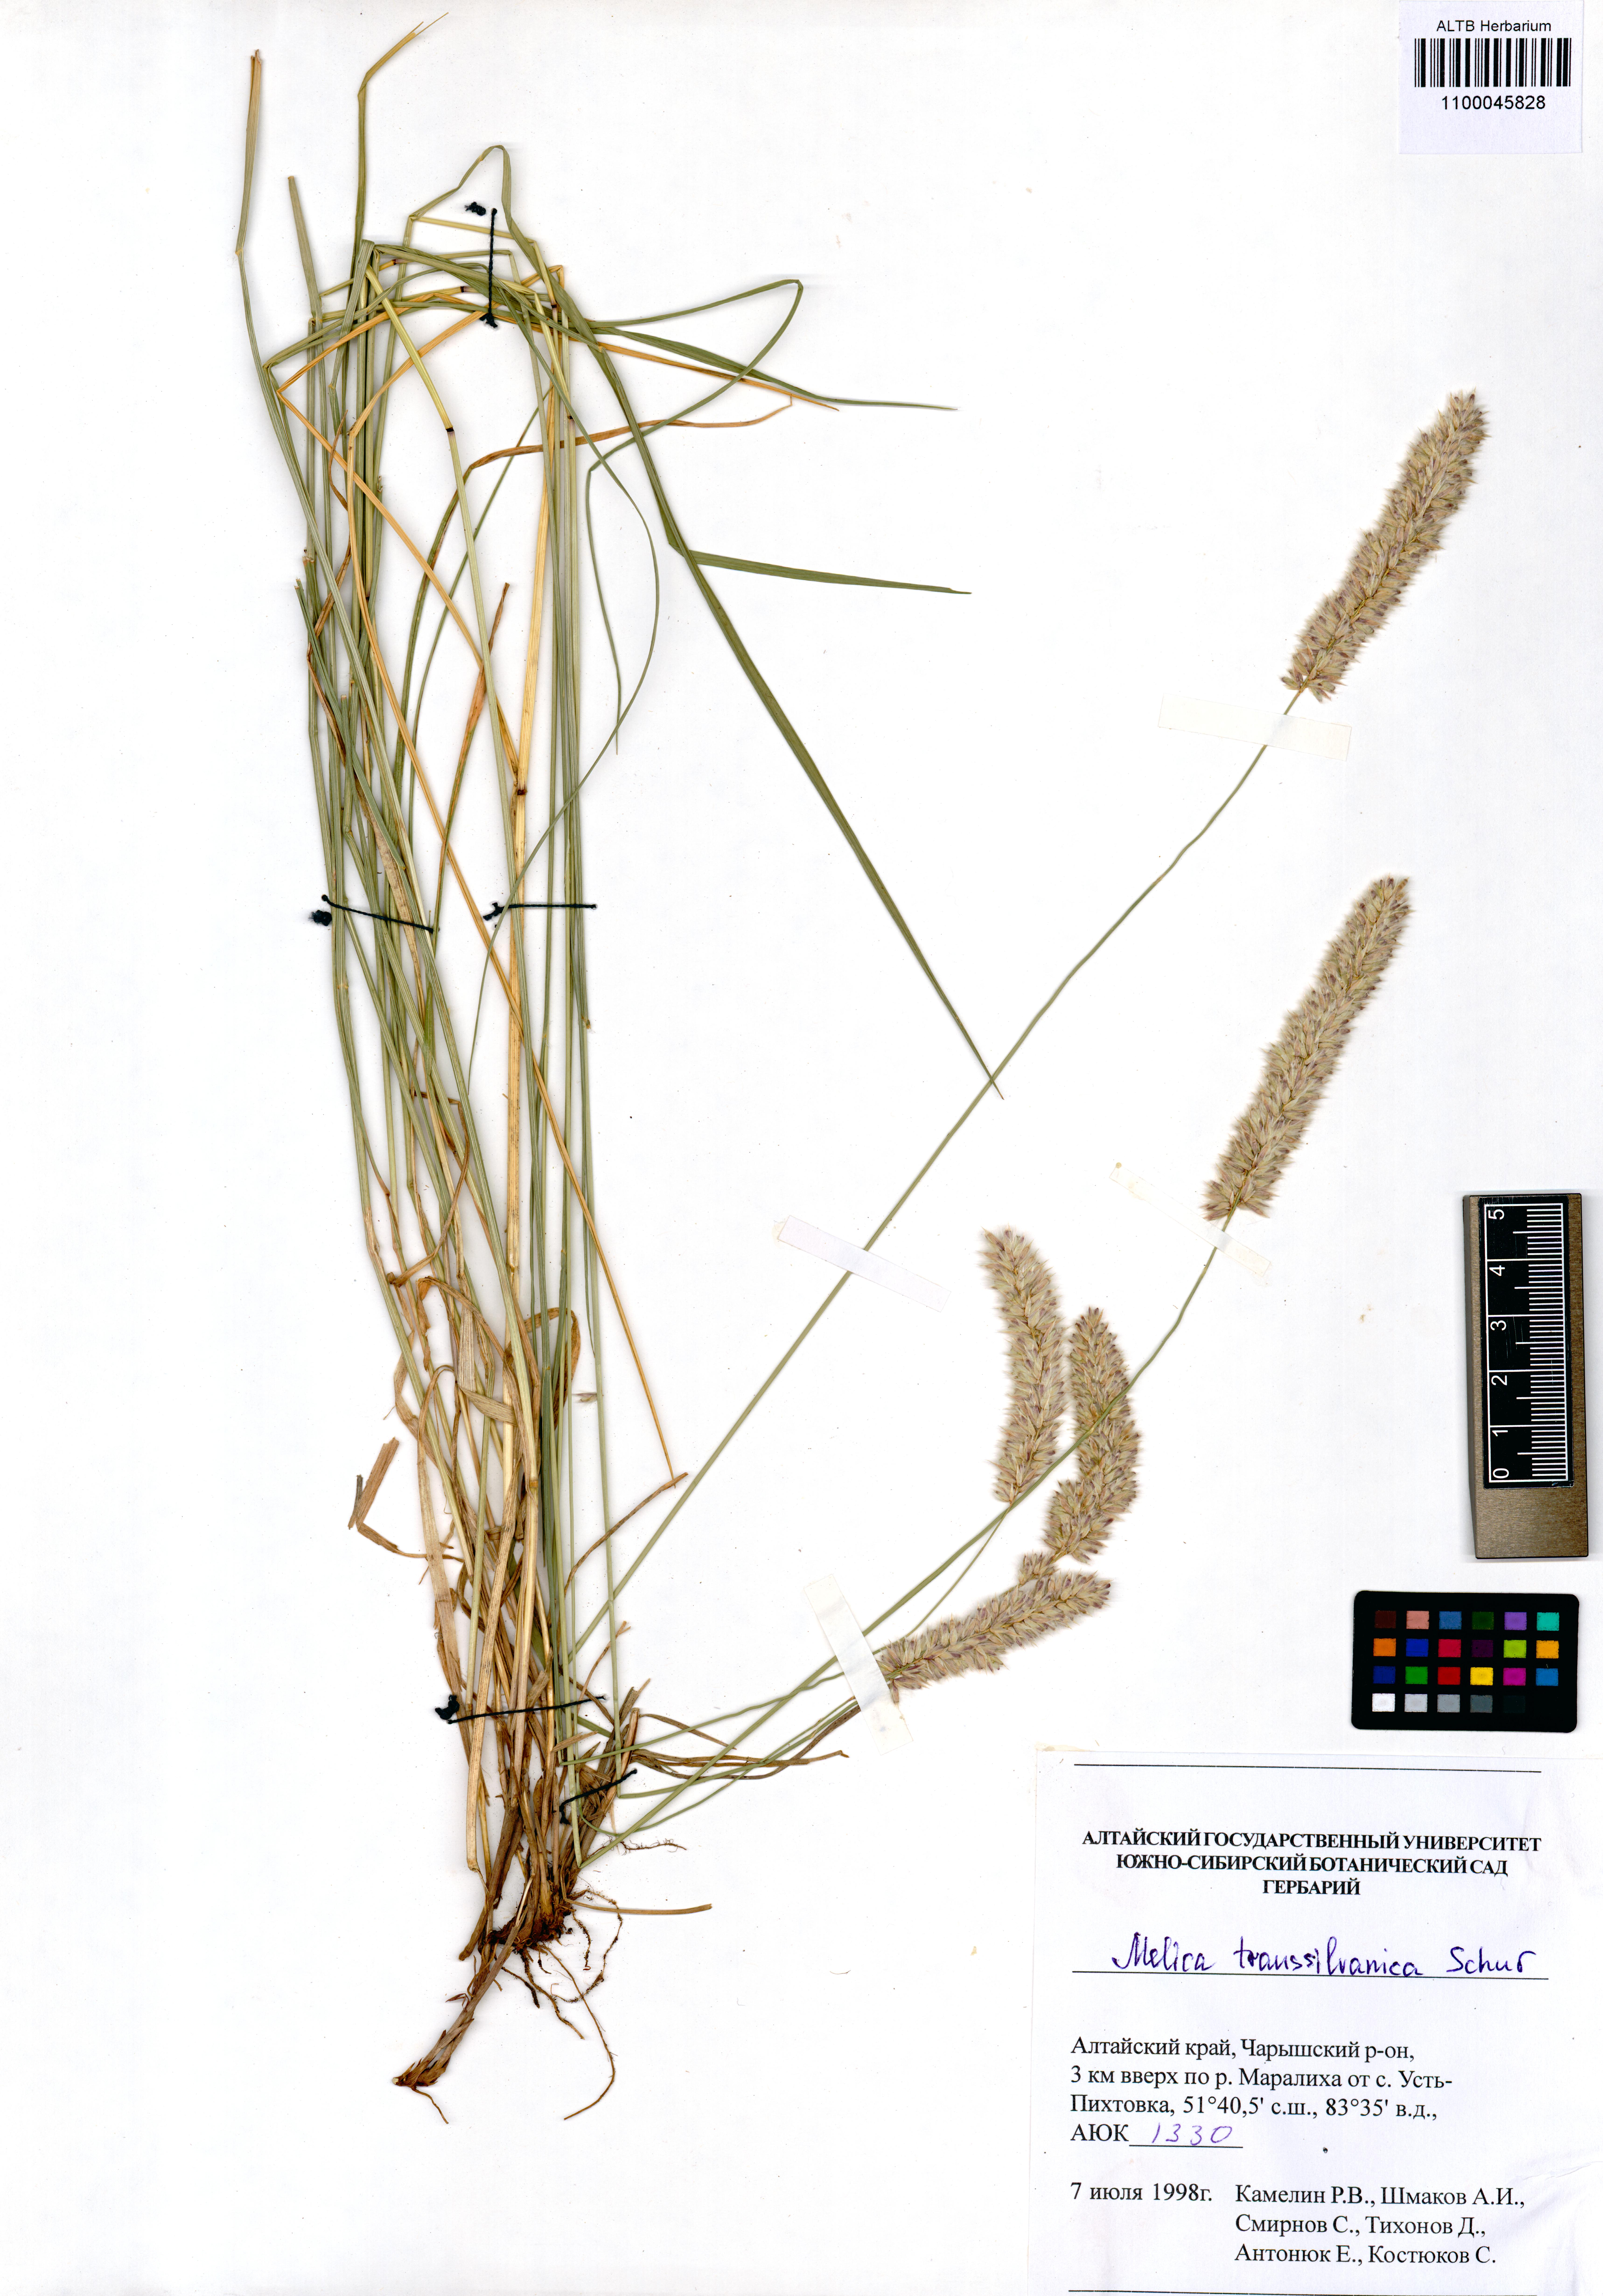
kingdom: Plantae
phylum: Tracheophyta
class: Liliopsida
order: Poales
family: Poaceae
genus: Melica
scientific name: Melica transsilvanica
